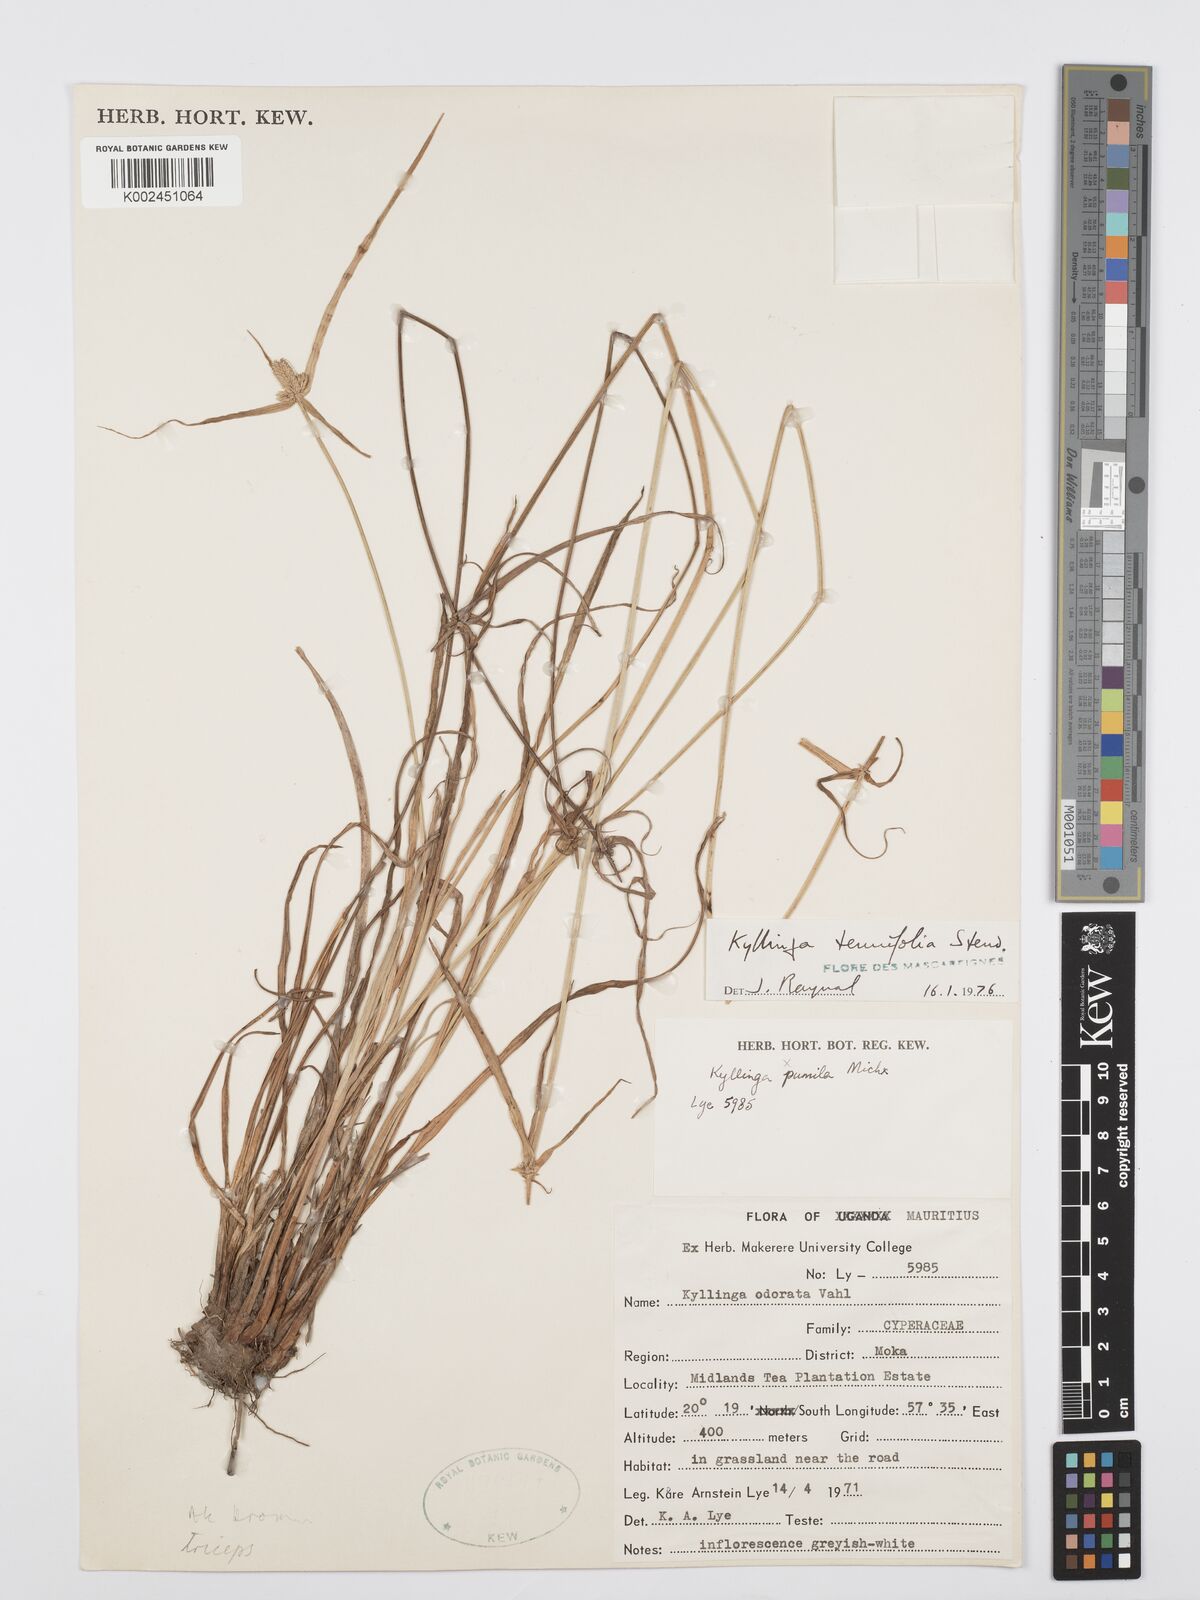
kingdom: Plantae
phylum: Tracheophyta
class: Liliopsida
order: Poales
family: Cyperaceae
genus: Cyperus
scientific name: Cyperus pumilus
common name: Low flatsedge
